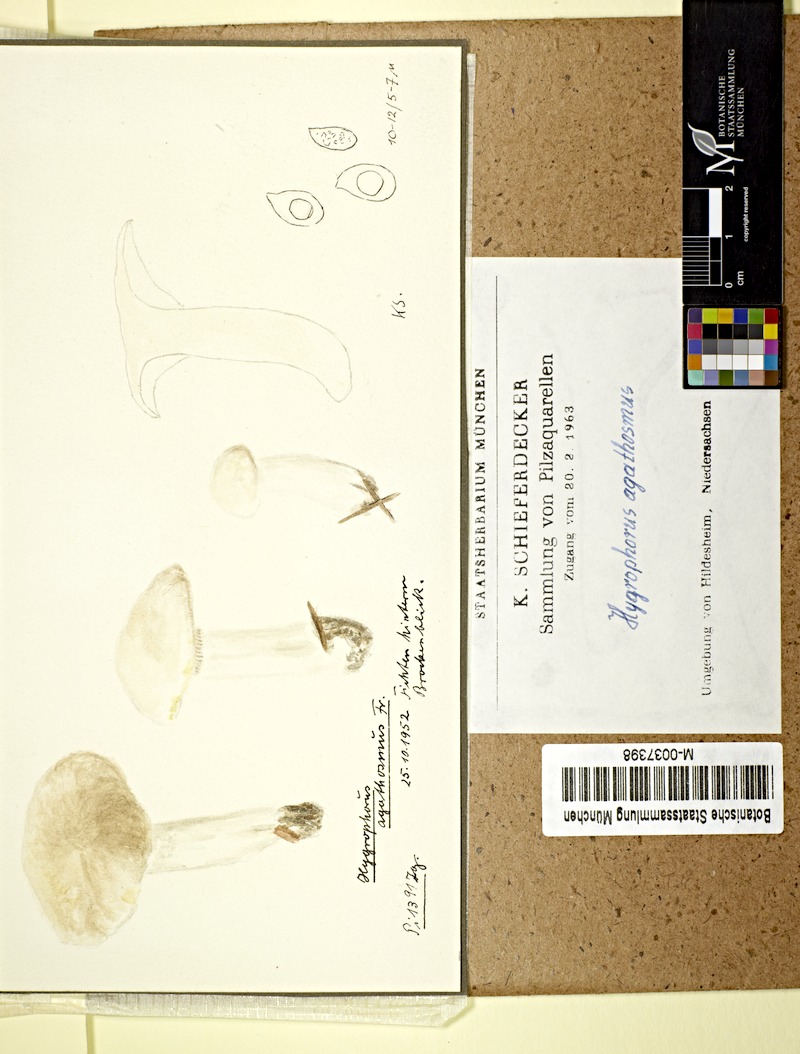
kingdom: Fungi
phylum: Basidiomycota
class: Agaricomycetes
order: Agaricales
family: Hygrophoraceae
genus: Hygrophorus
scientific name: Hygrophorus agathosmus
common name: Almond woodwax
